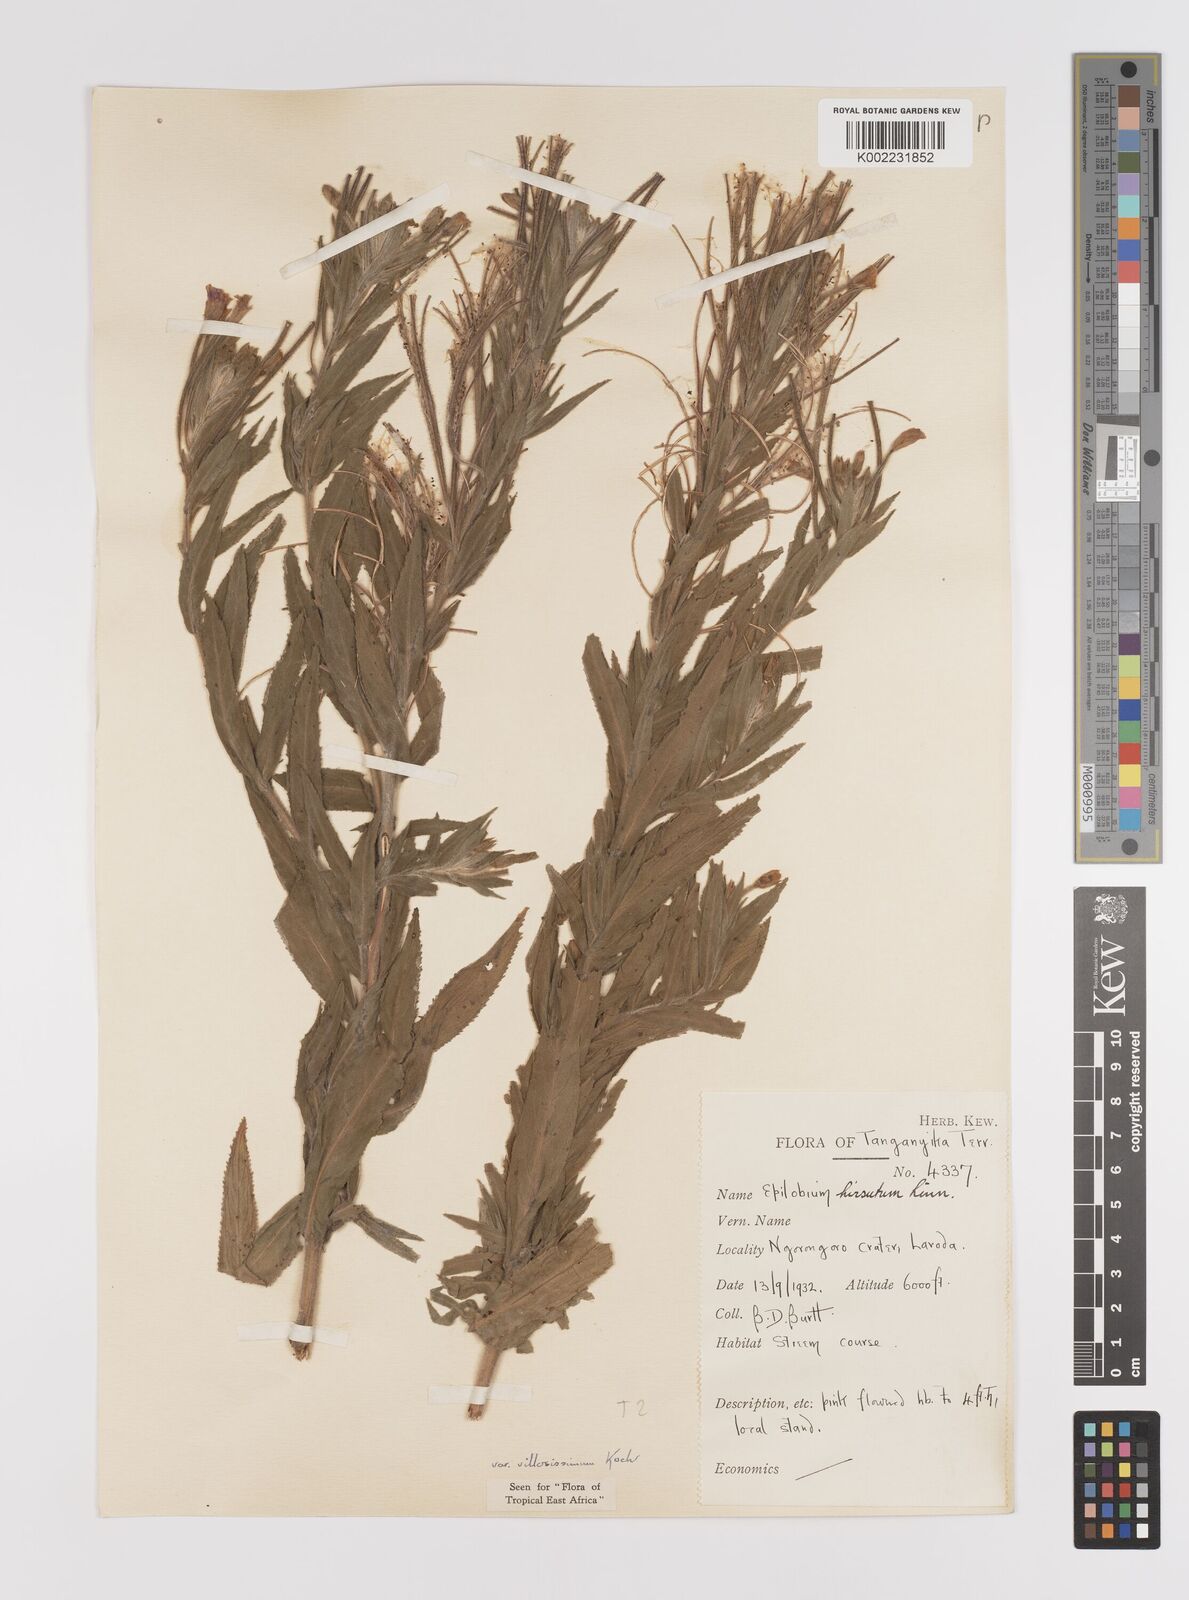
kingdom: Plantae
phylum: Tracheophyta
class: Magnoliopsida
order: Myrtales
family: Onagraceae
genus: Epilobium
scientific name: Epilobium hirsutum
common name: Great willowherb
